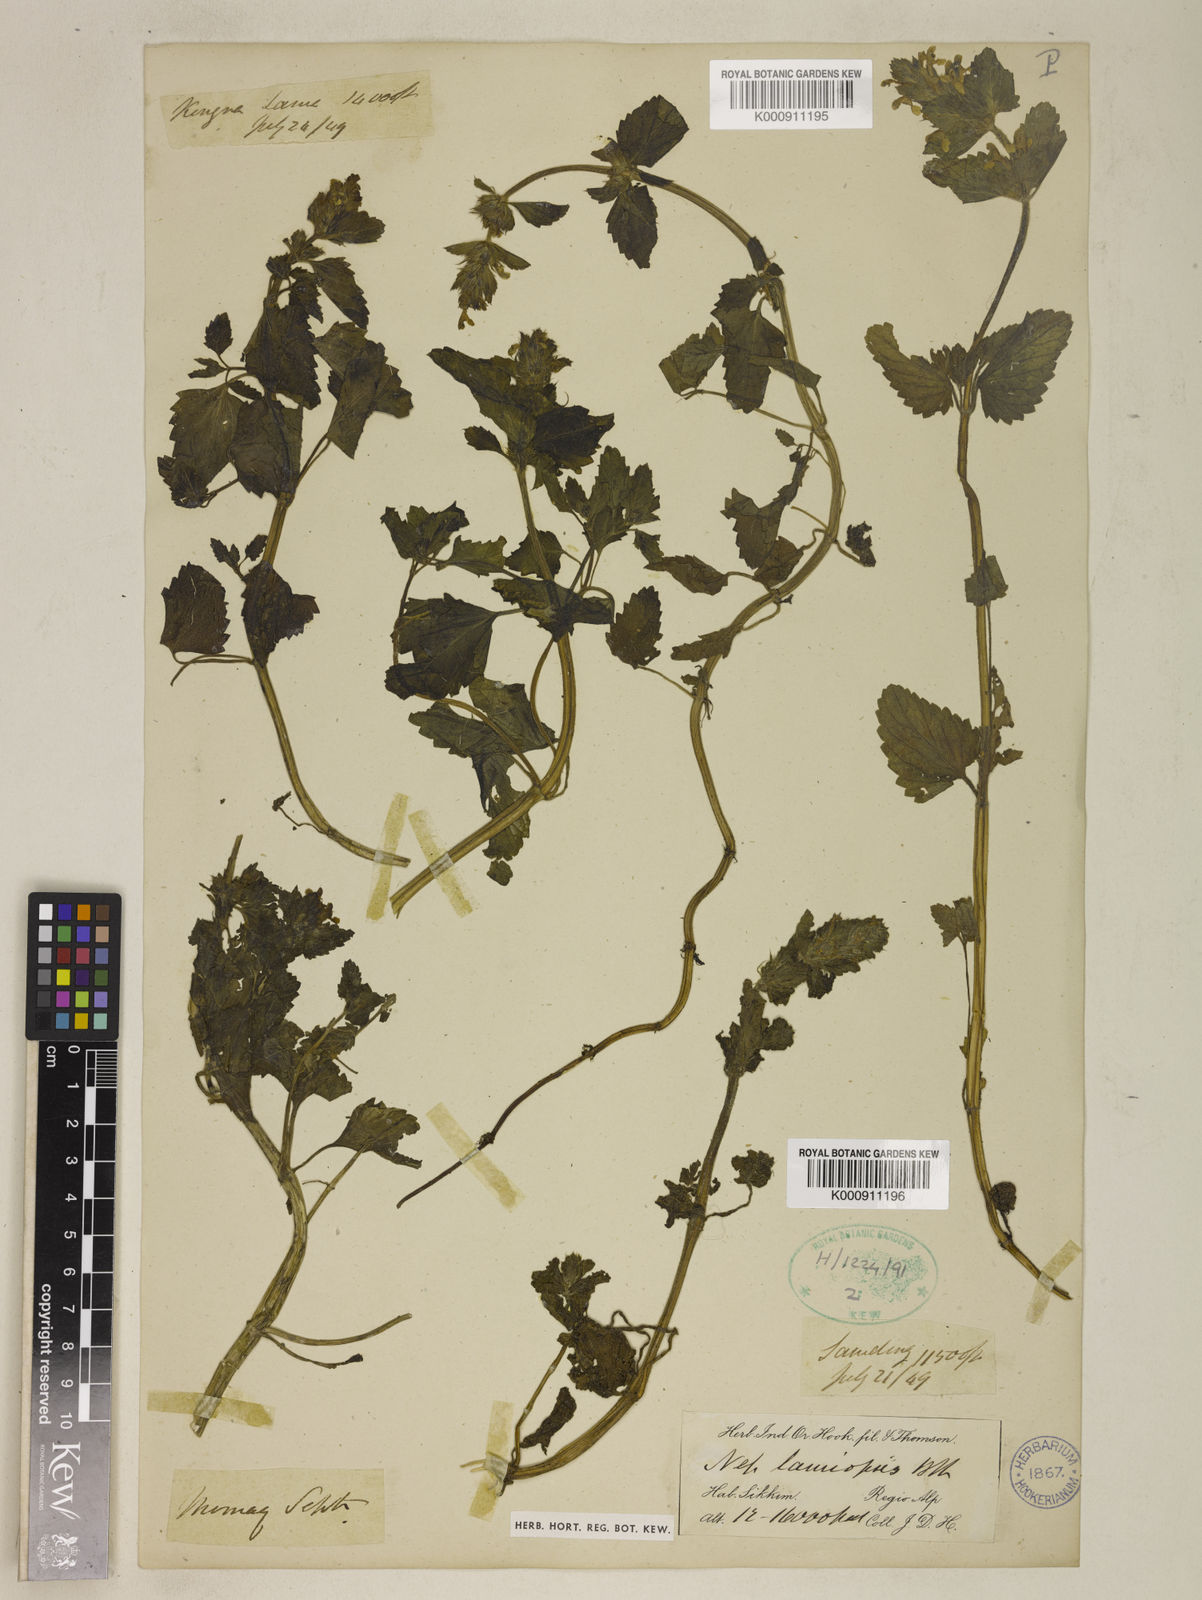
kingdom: Plantae
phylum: Tracheophyta
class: Magnoliopsida
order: Lamiales
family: Lamiaceae
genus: Nepeta
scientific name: Nepeta lamiopsis
